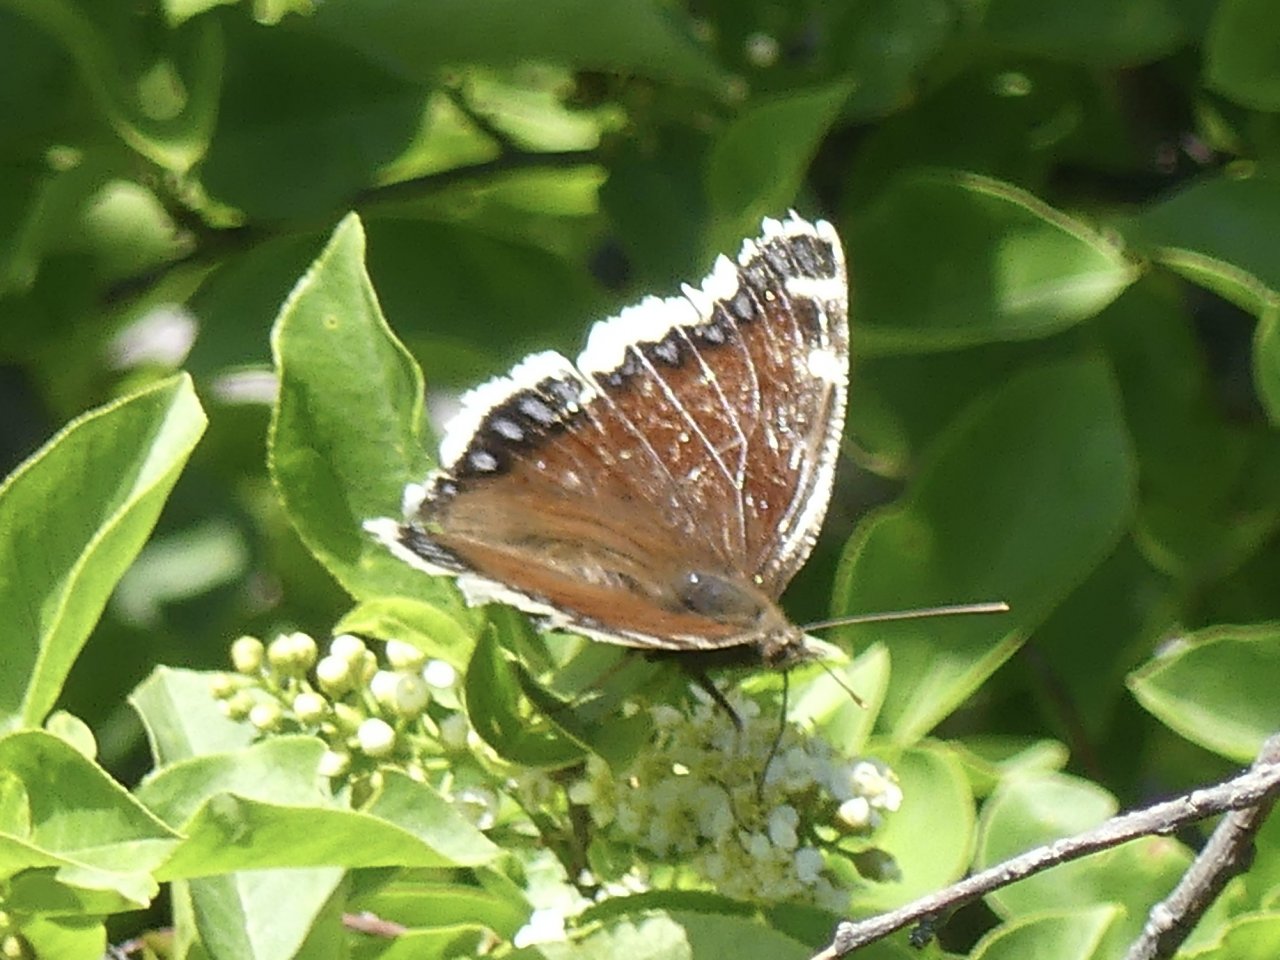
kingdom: Animalia
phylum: Arthropoda
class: Insecta
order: Lepidoptera
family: Nymphalidae
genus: Nymphalis
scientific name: Nymphalis antiopa
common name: Mourning Cloak
